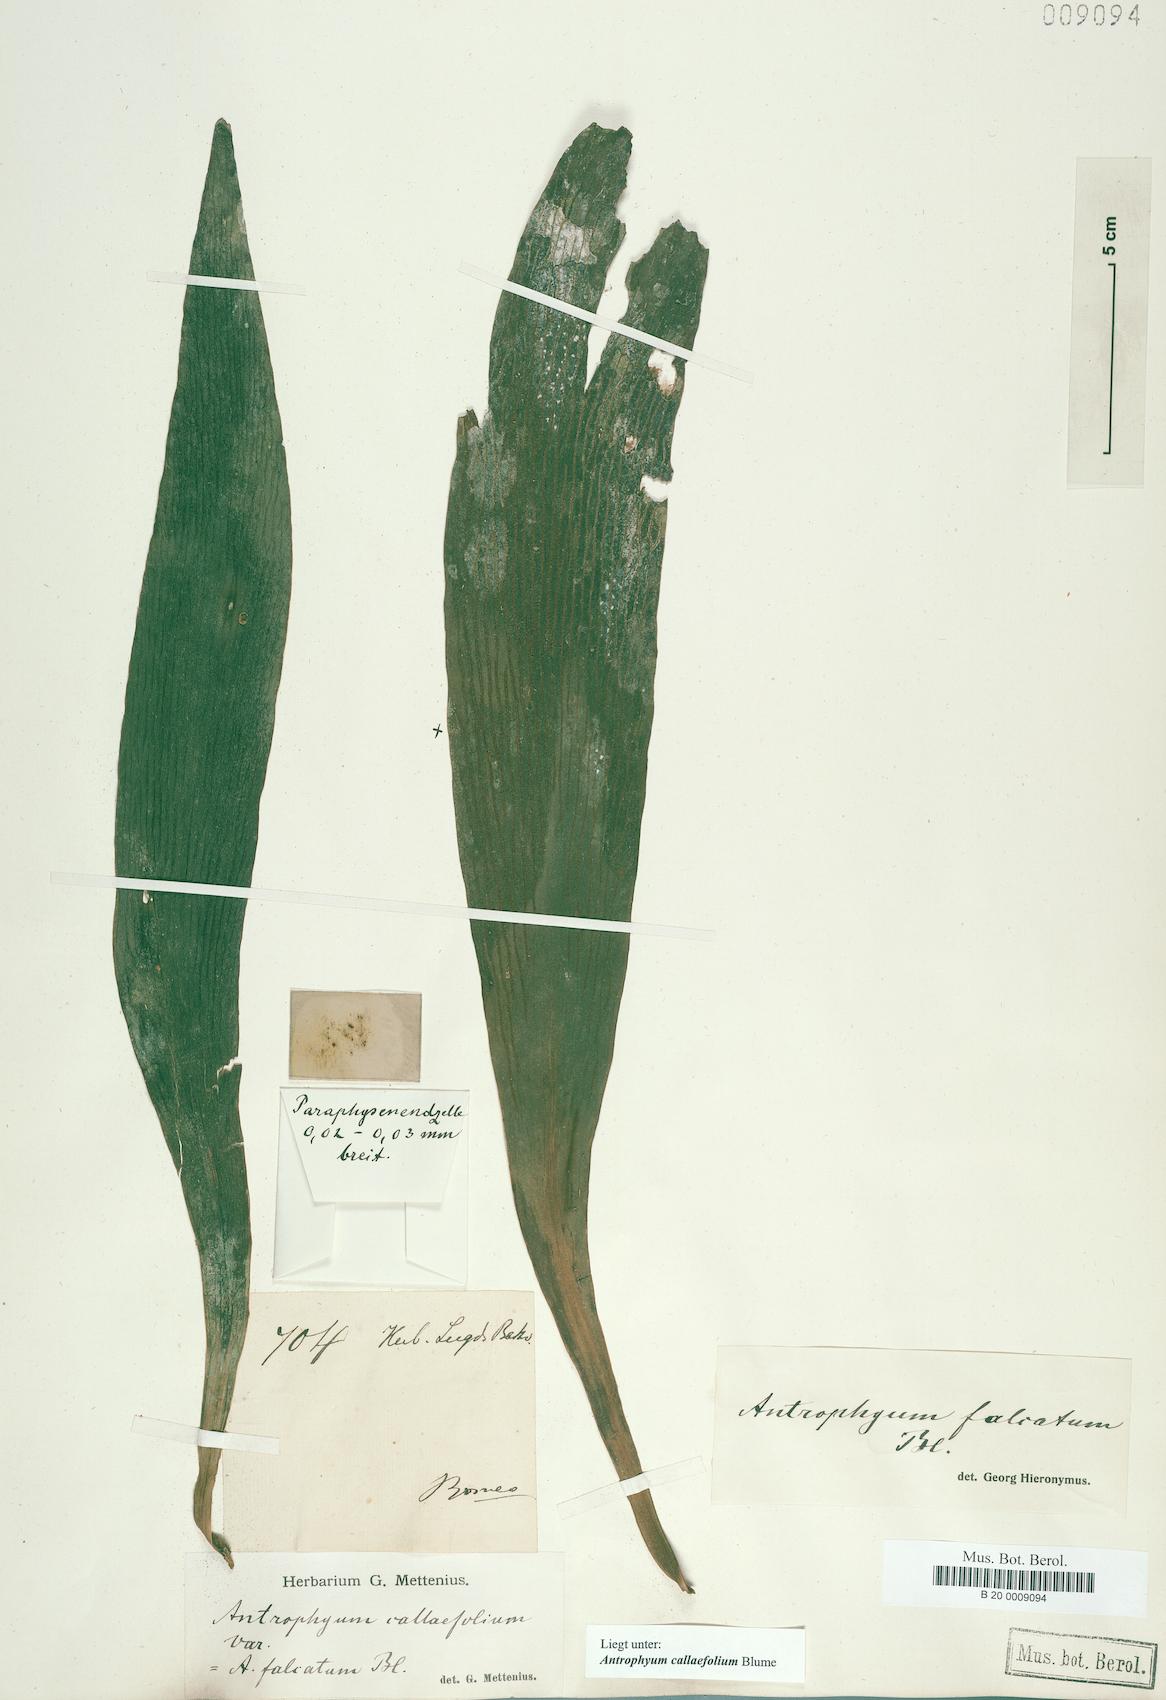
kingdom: Plantae
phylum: Tracheophyta
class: Polypodiopsida
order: Polypodiales
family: Pteridaceae
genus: Antrophyum
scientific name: Antrophyum callifolium
